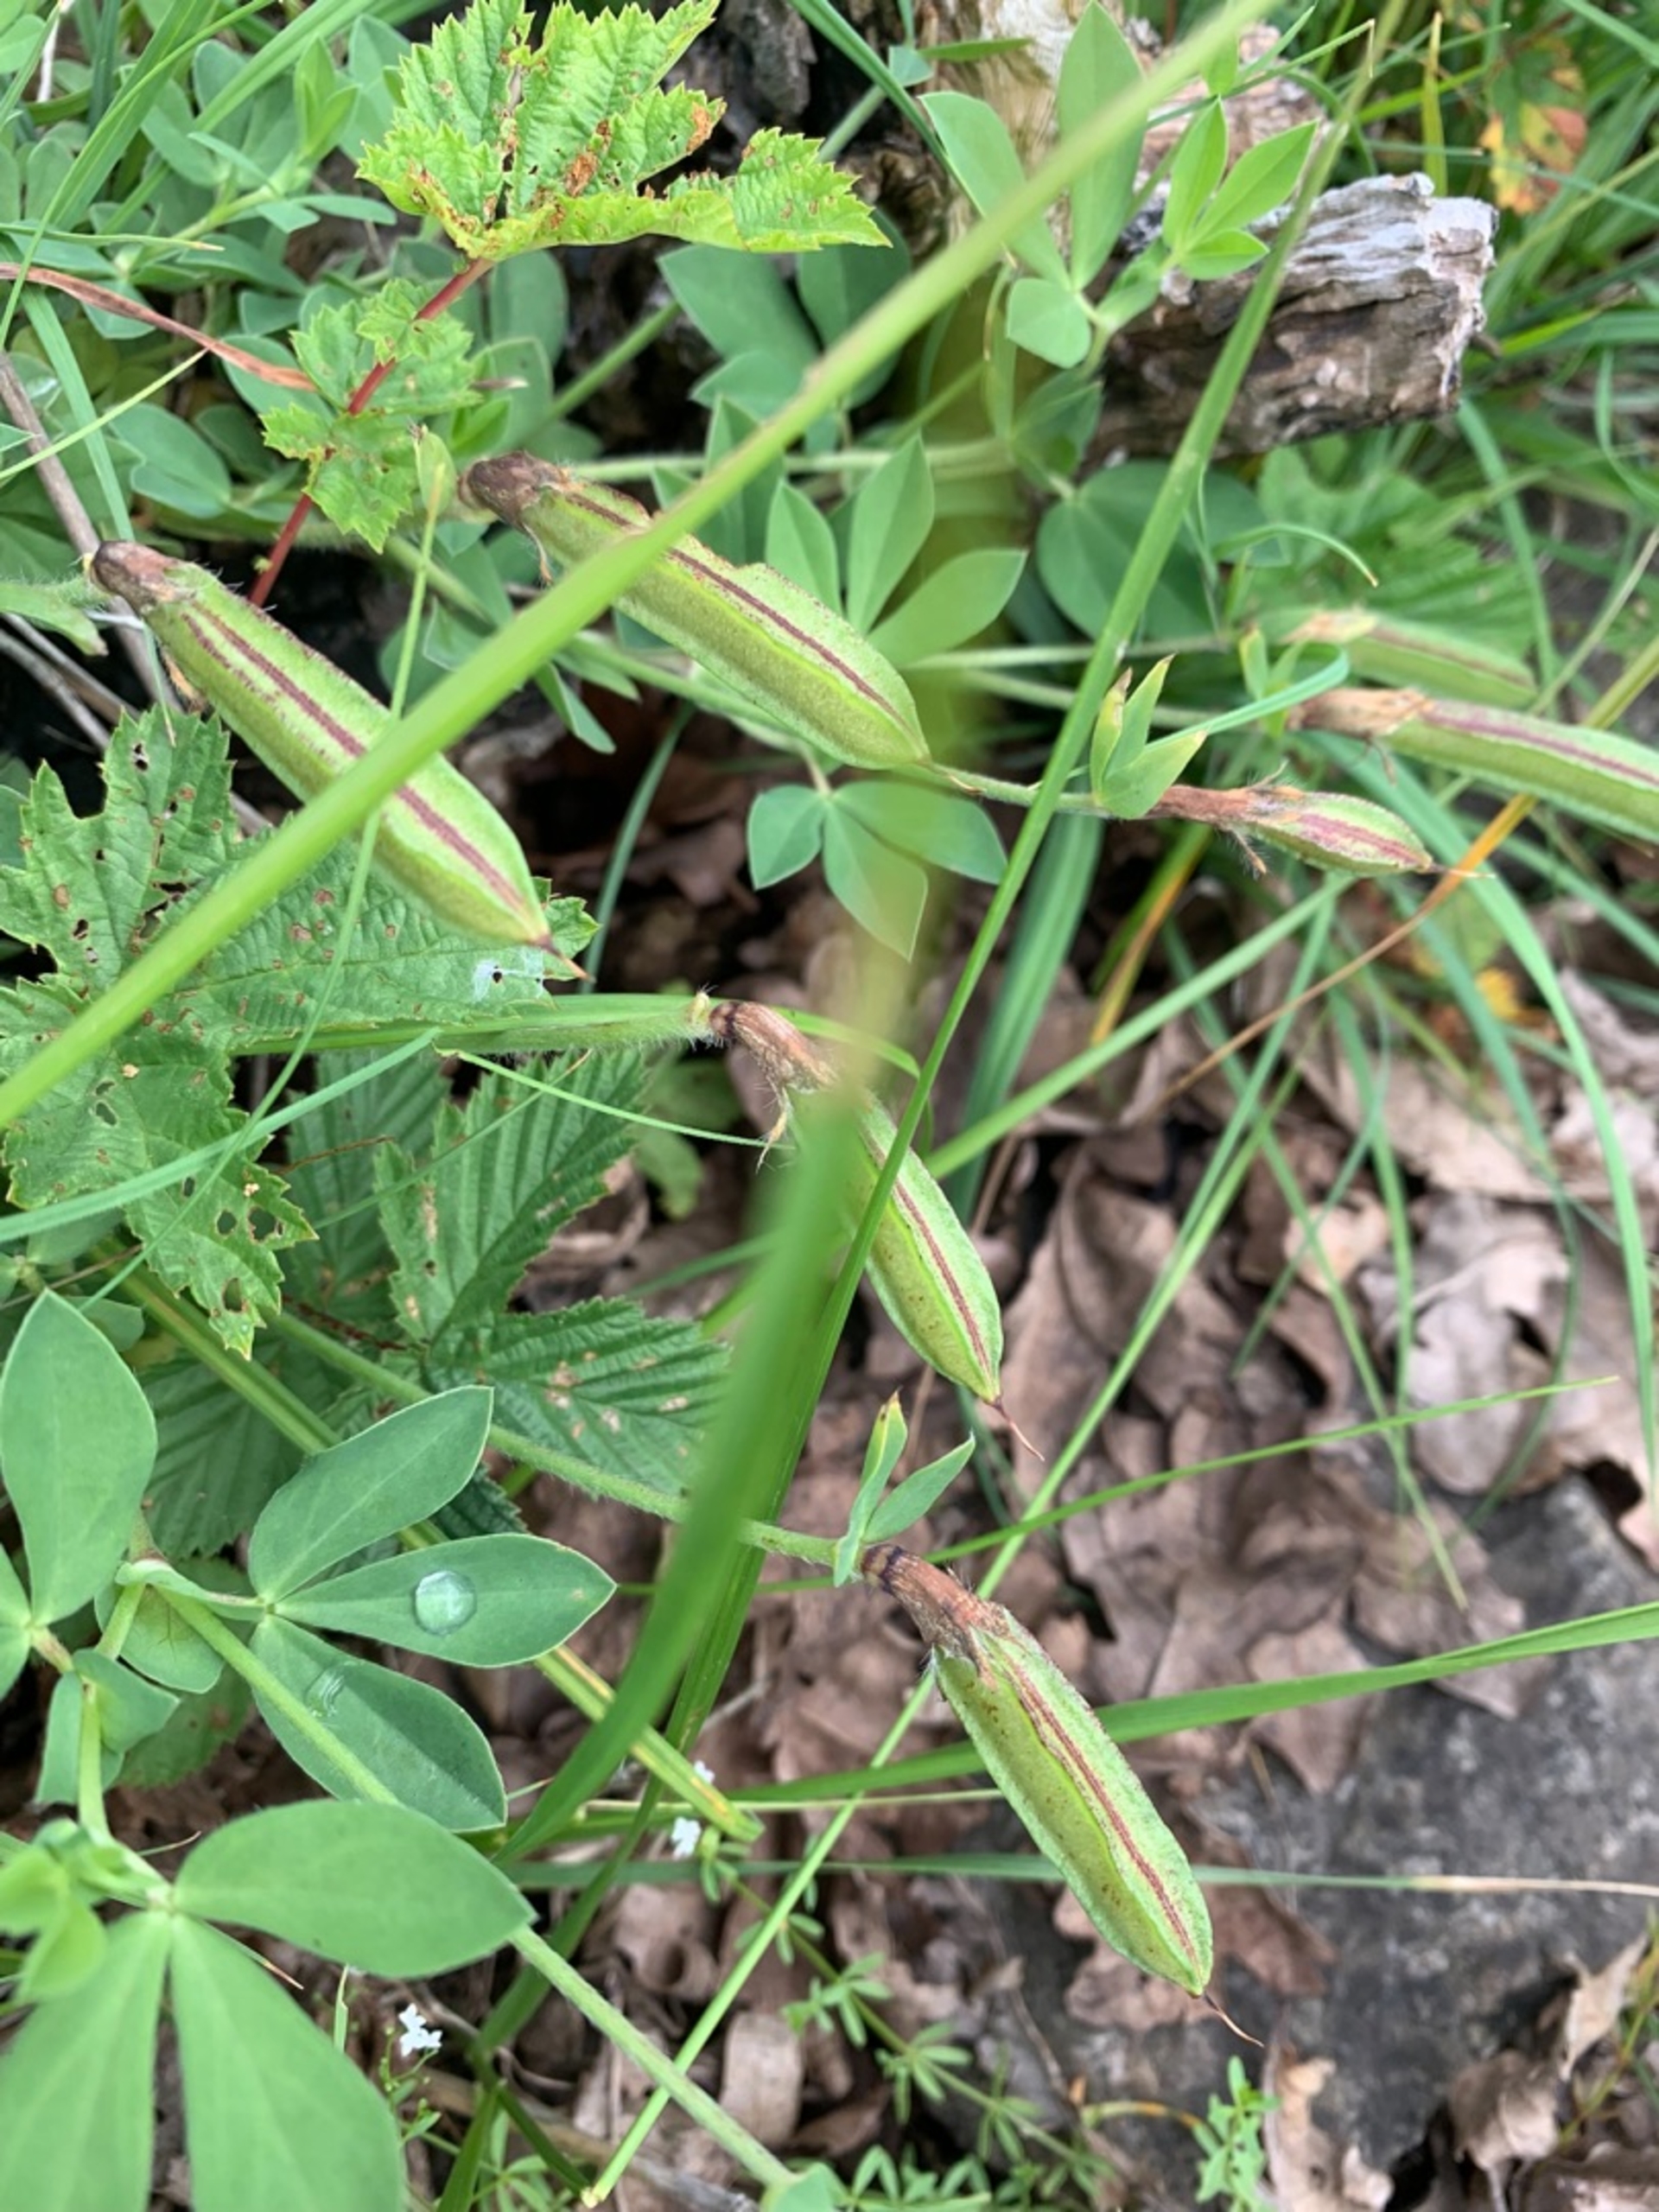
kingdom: Plantae
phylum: Tracheophyta
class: Magnoliopsida
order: Fabales
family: Fabaceae
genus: Lotus
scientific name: Lotus maritimus
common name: Kantbælg
